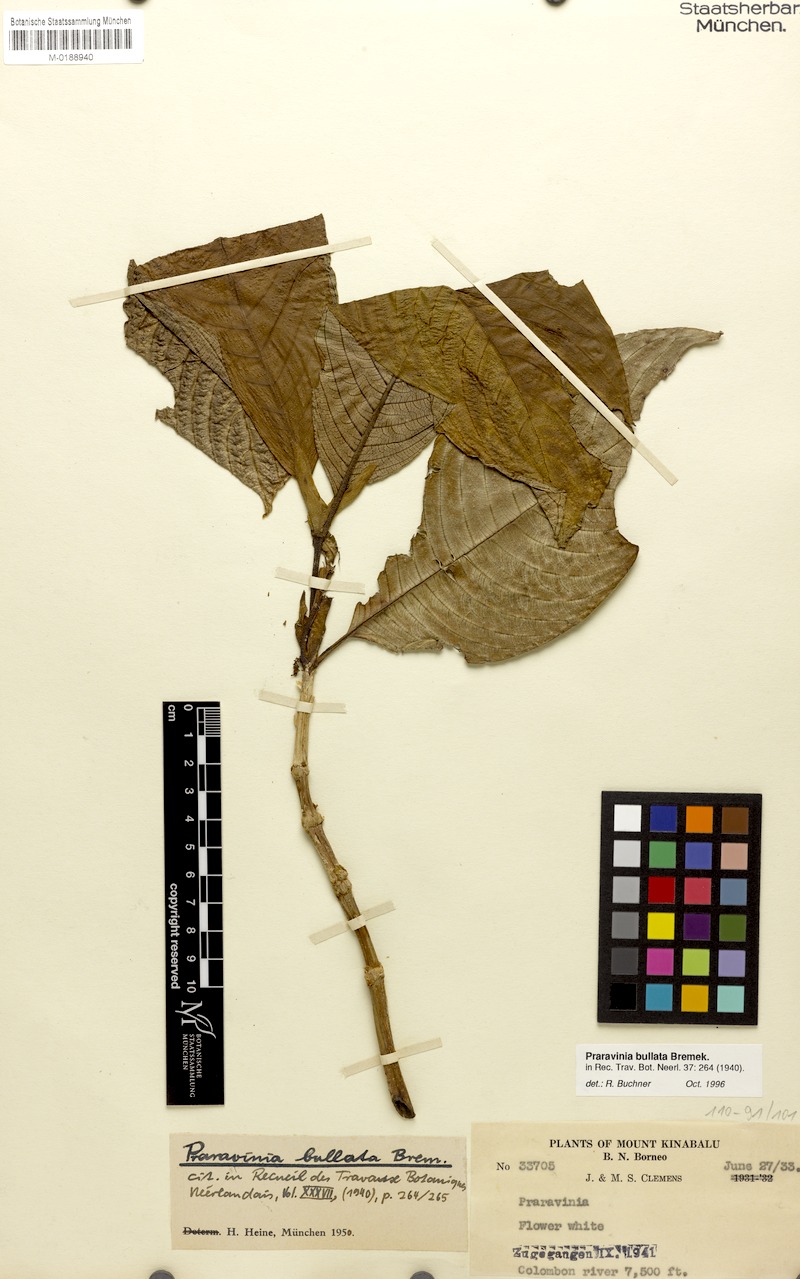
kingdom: Plantae
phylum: Tracheophyta
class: Magnoliopsida
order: Gentianales
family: Rubiaceae
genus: Praravinia
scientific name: Praravinia bullata
